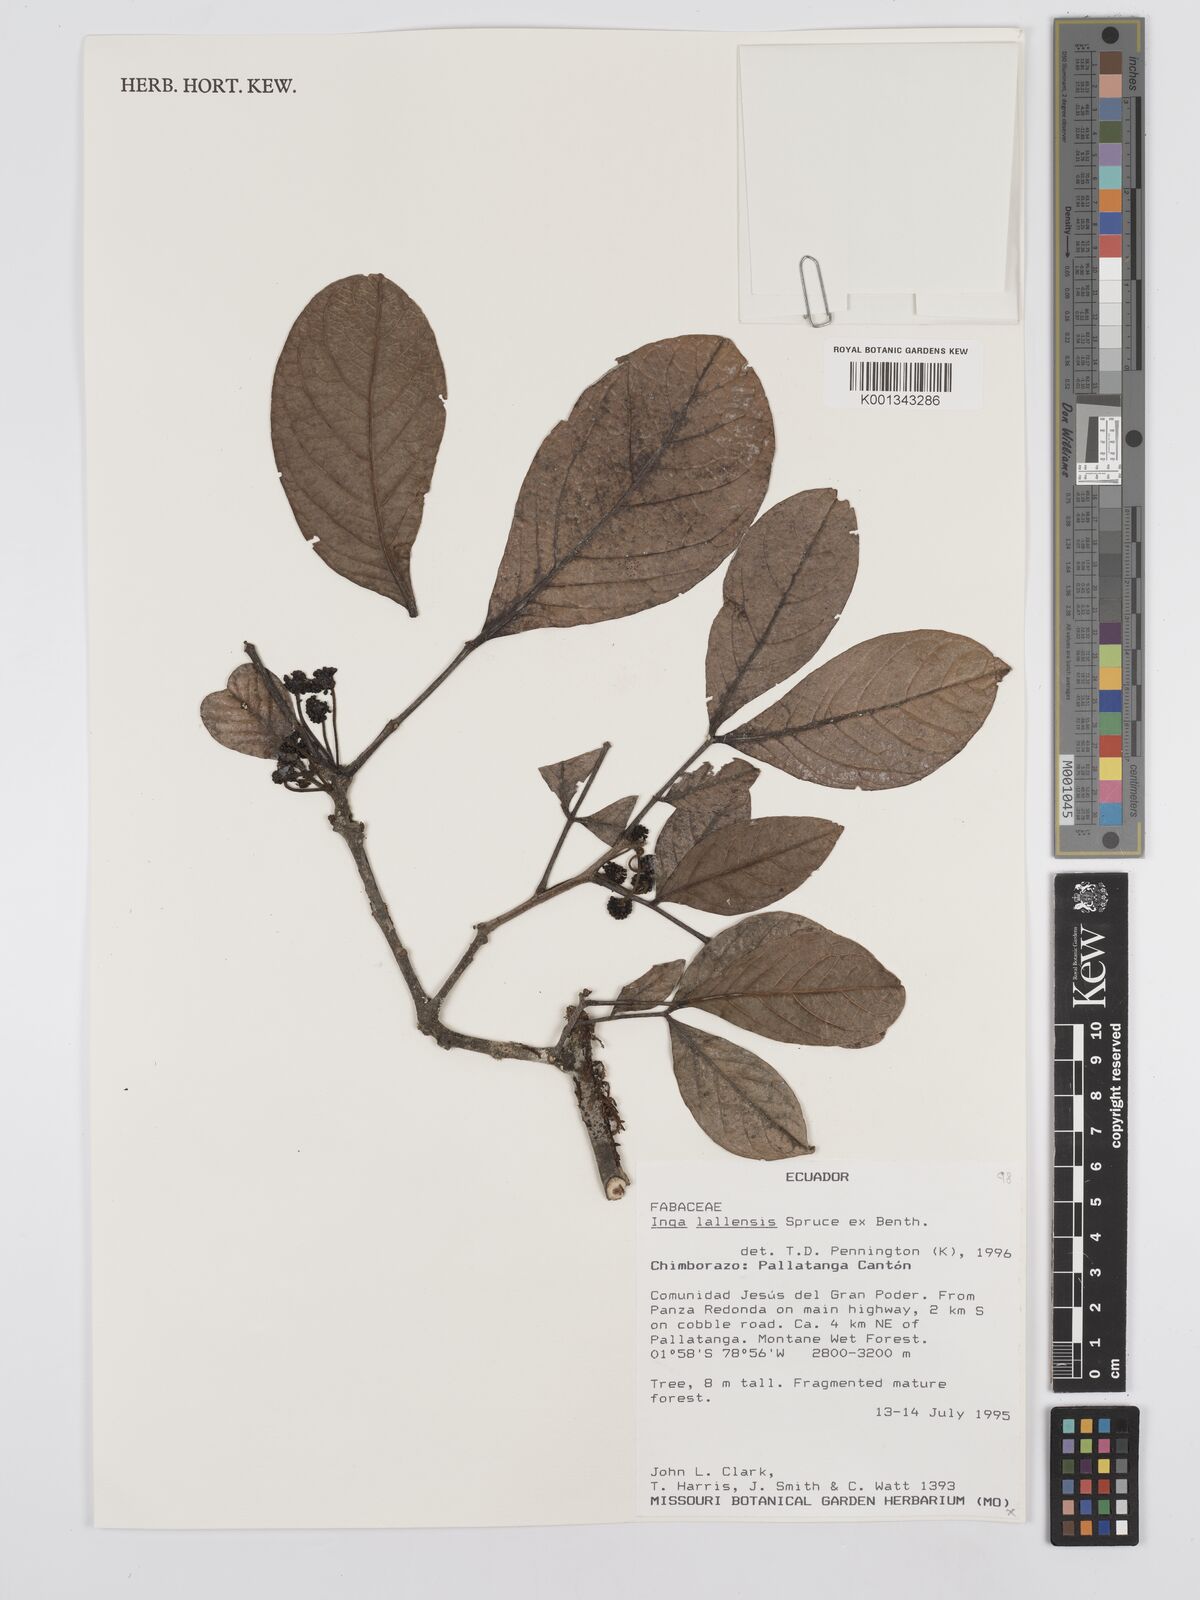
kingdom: Plantae
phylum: Tracheophyta
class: Magnoliopsida
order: Fabales
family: Fabaceae
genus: Inga
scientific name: Inga lallensis
